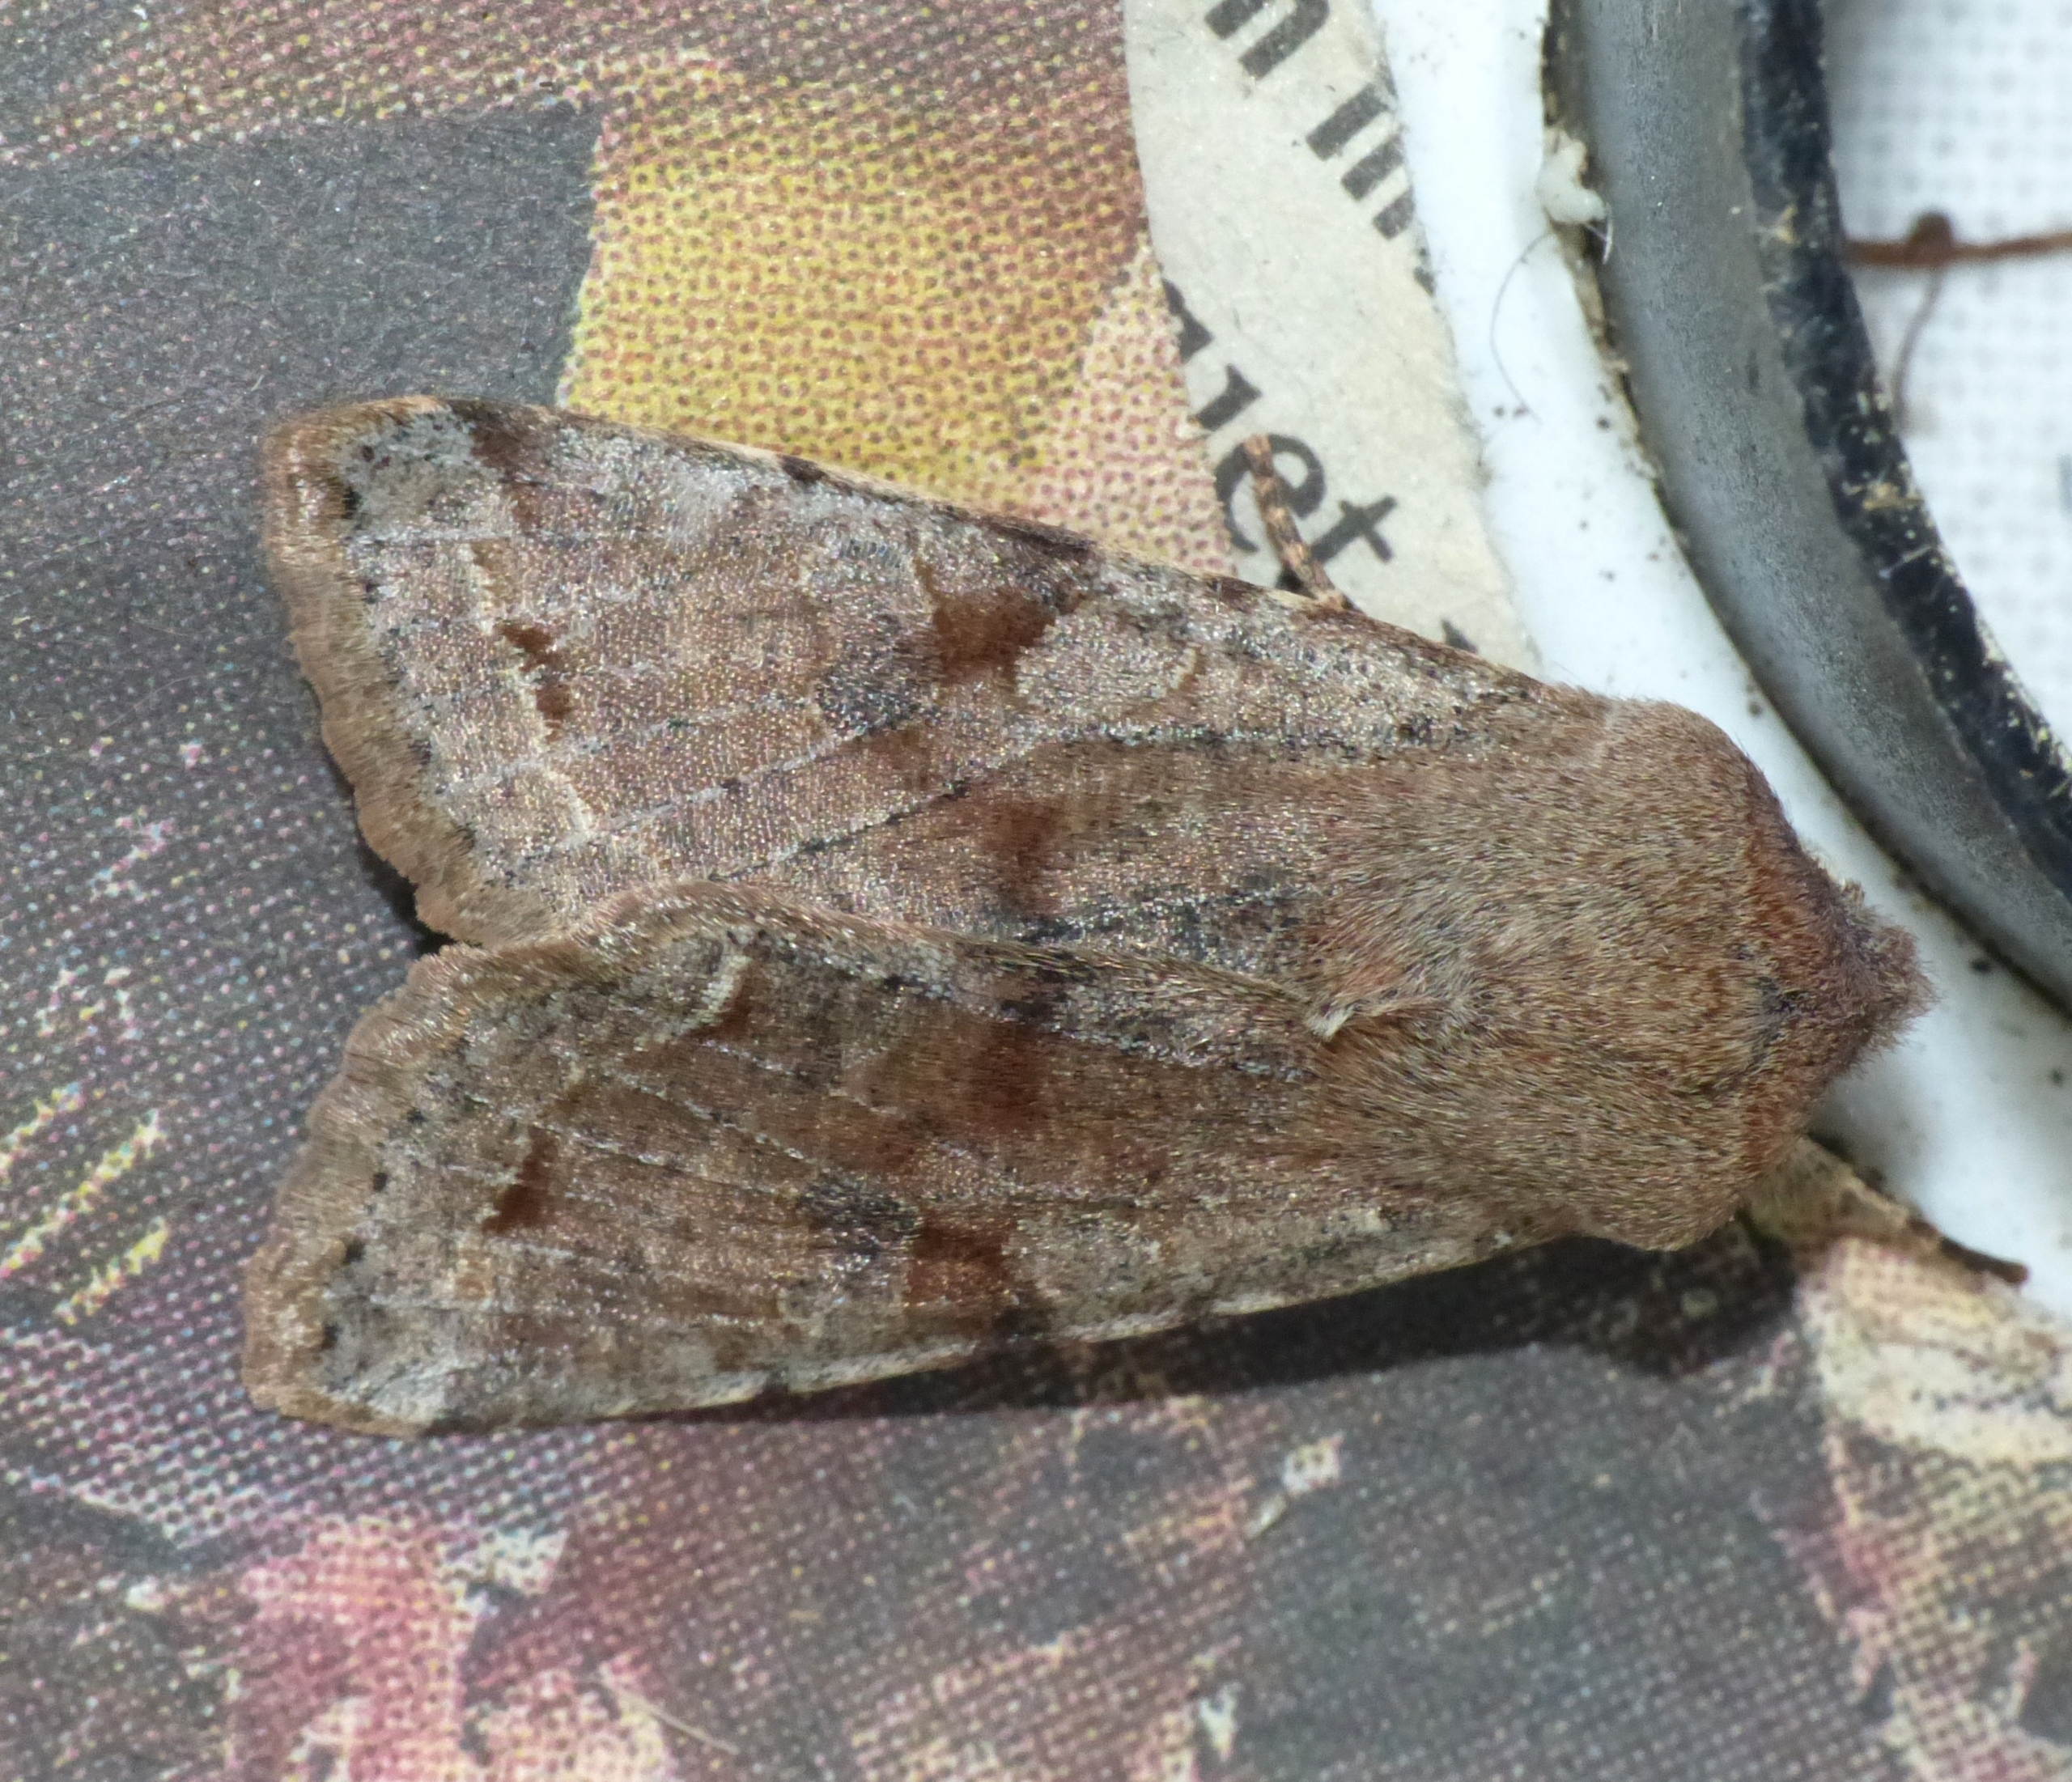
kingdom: Animalia
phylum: Arthropoda
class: Insecta
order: Lepidoptera
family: Noctuidae
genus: Orthosia
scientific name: Orthosia incerta
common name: Broget forårsugle
